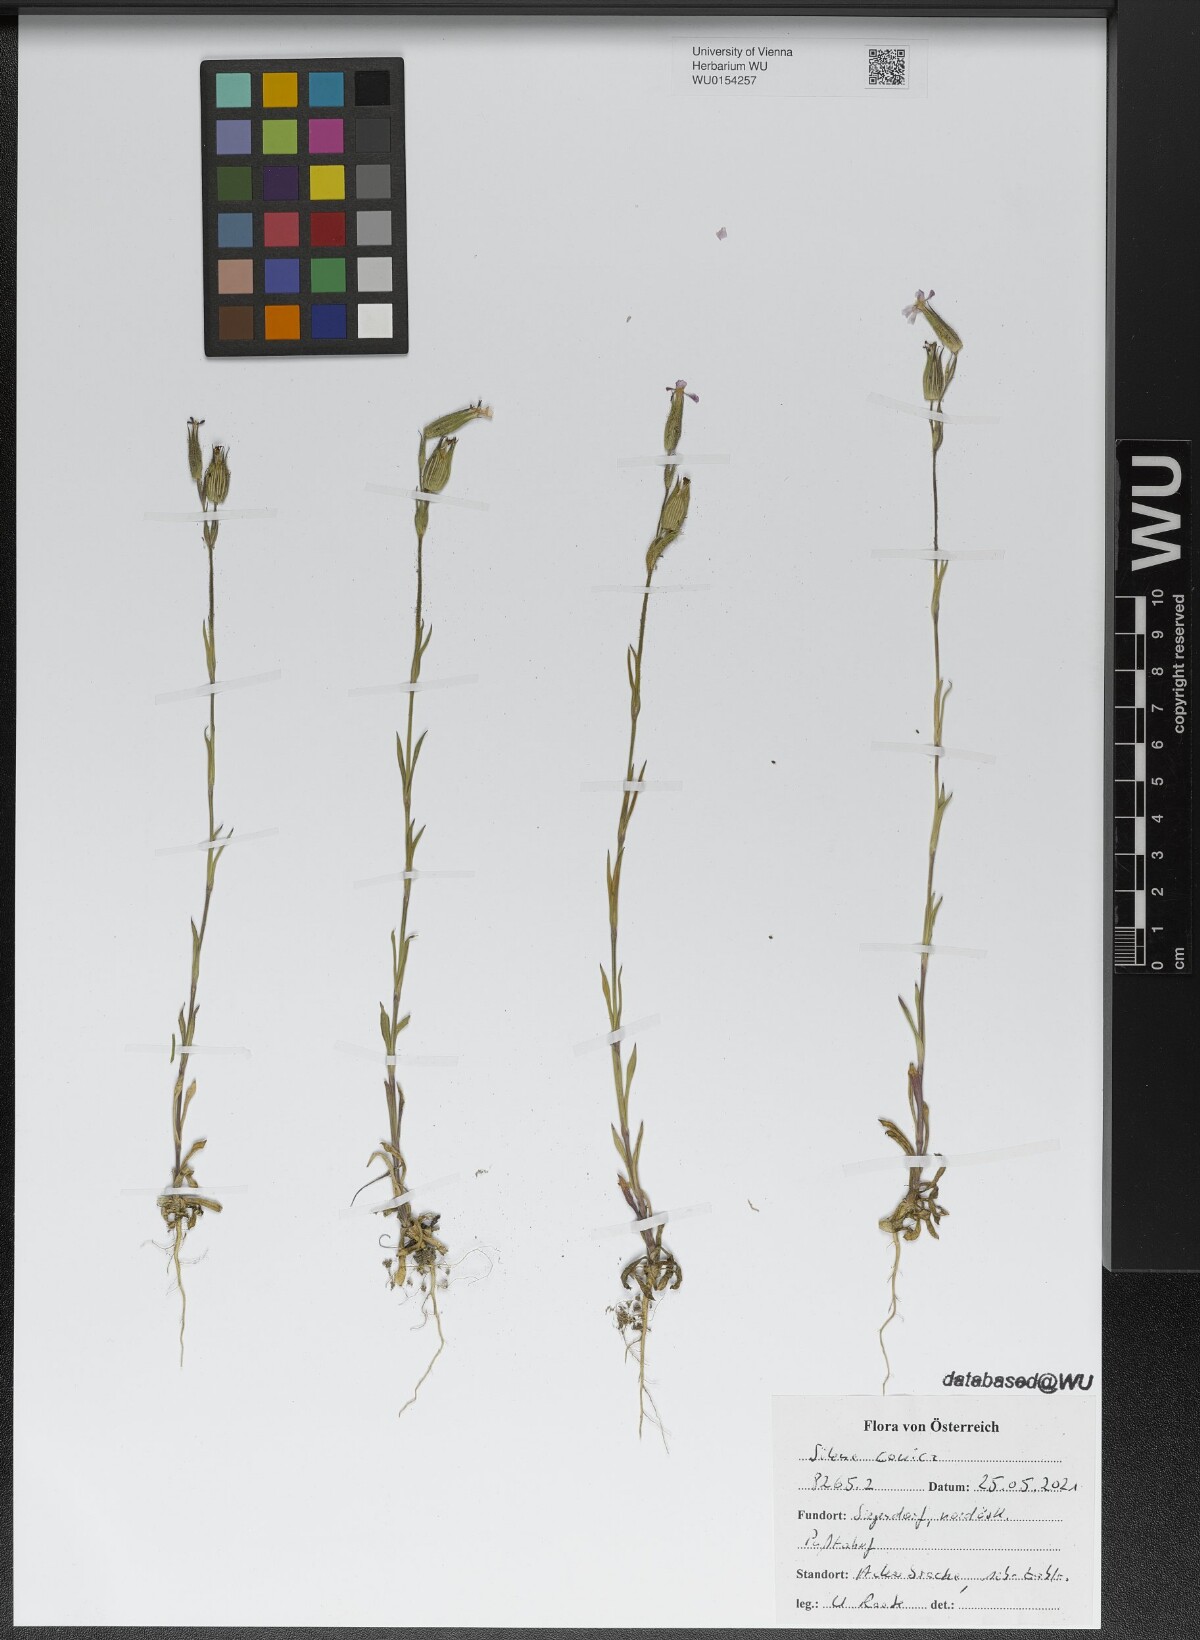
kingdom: Plantae
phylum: Tracheophyta
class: Magnoliopsida
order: Caryophyllales
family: Caryophyllaceae
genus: Silene
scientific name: Silene conica
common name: Sand catchfly
